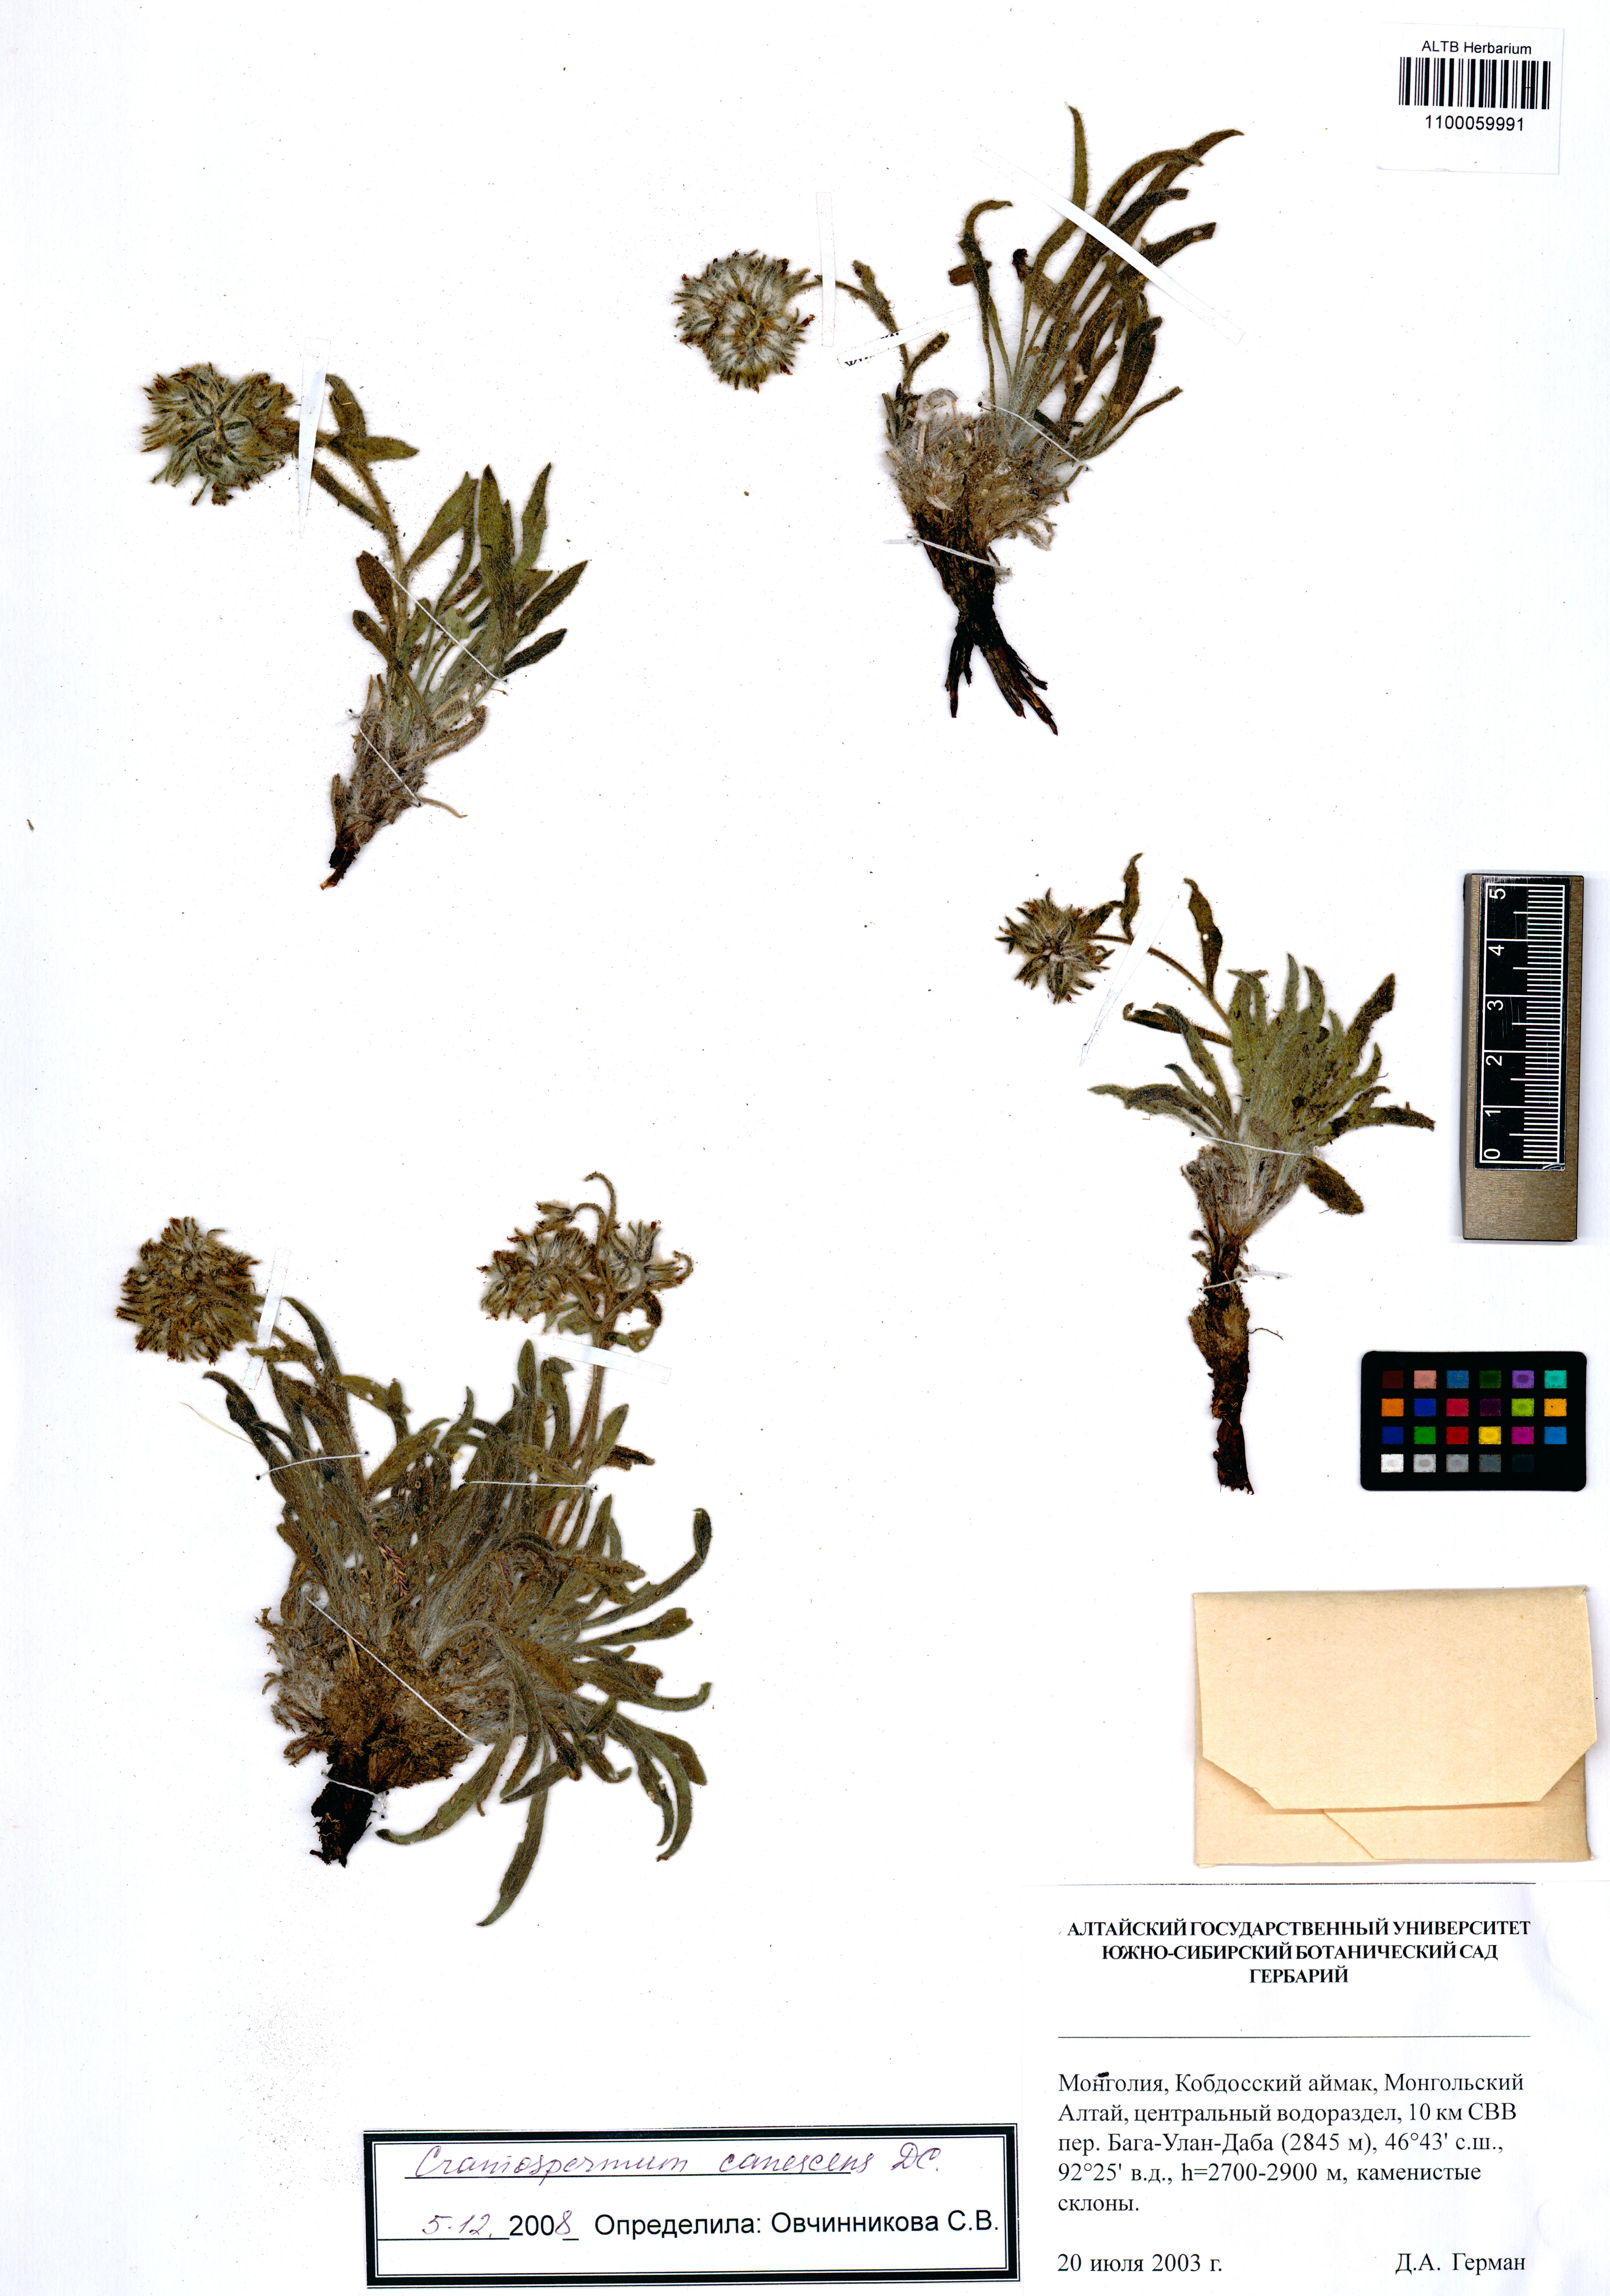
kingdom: Plantae
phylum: Tracheophyta
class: Magnoliopsida
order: Boraginales
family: Boraginaceae
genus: Craniospermum
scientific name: Craniospermum canescens
